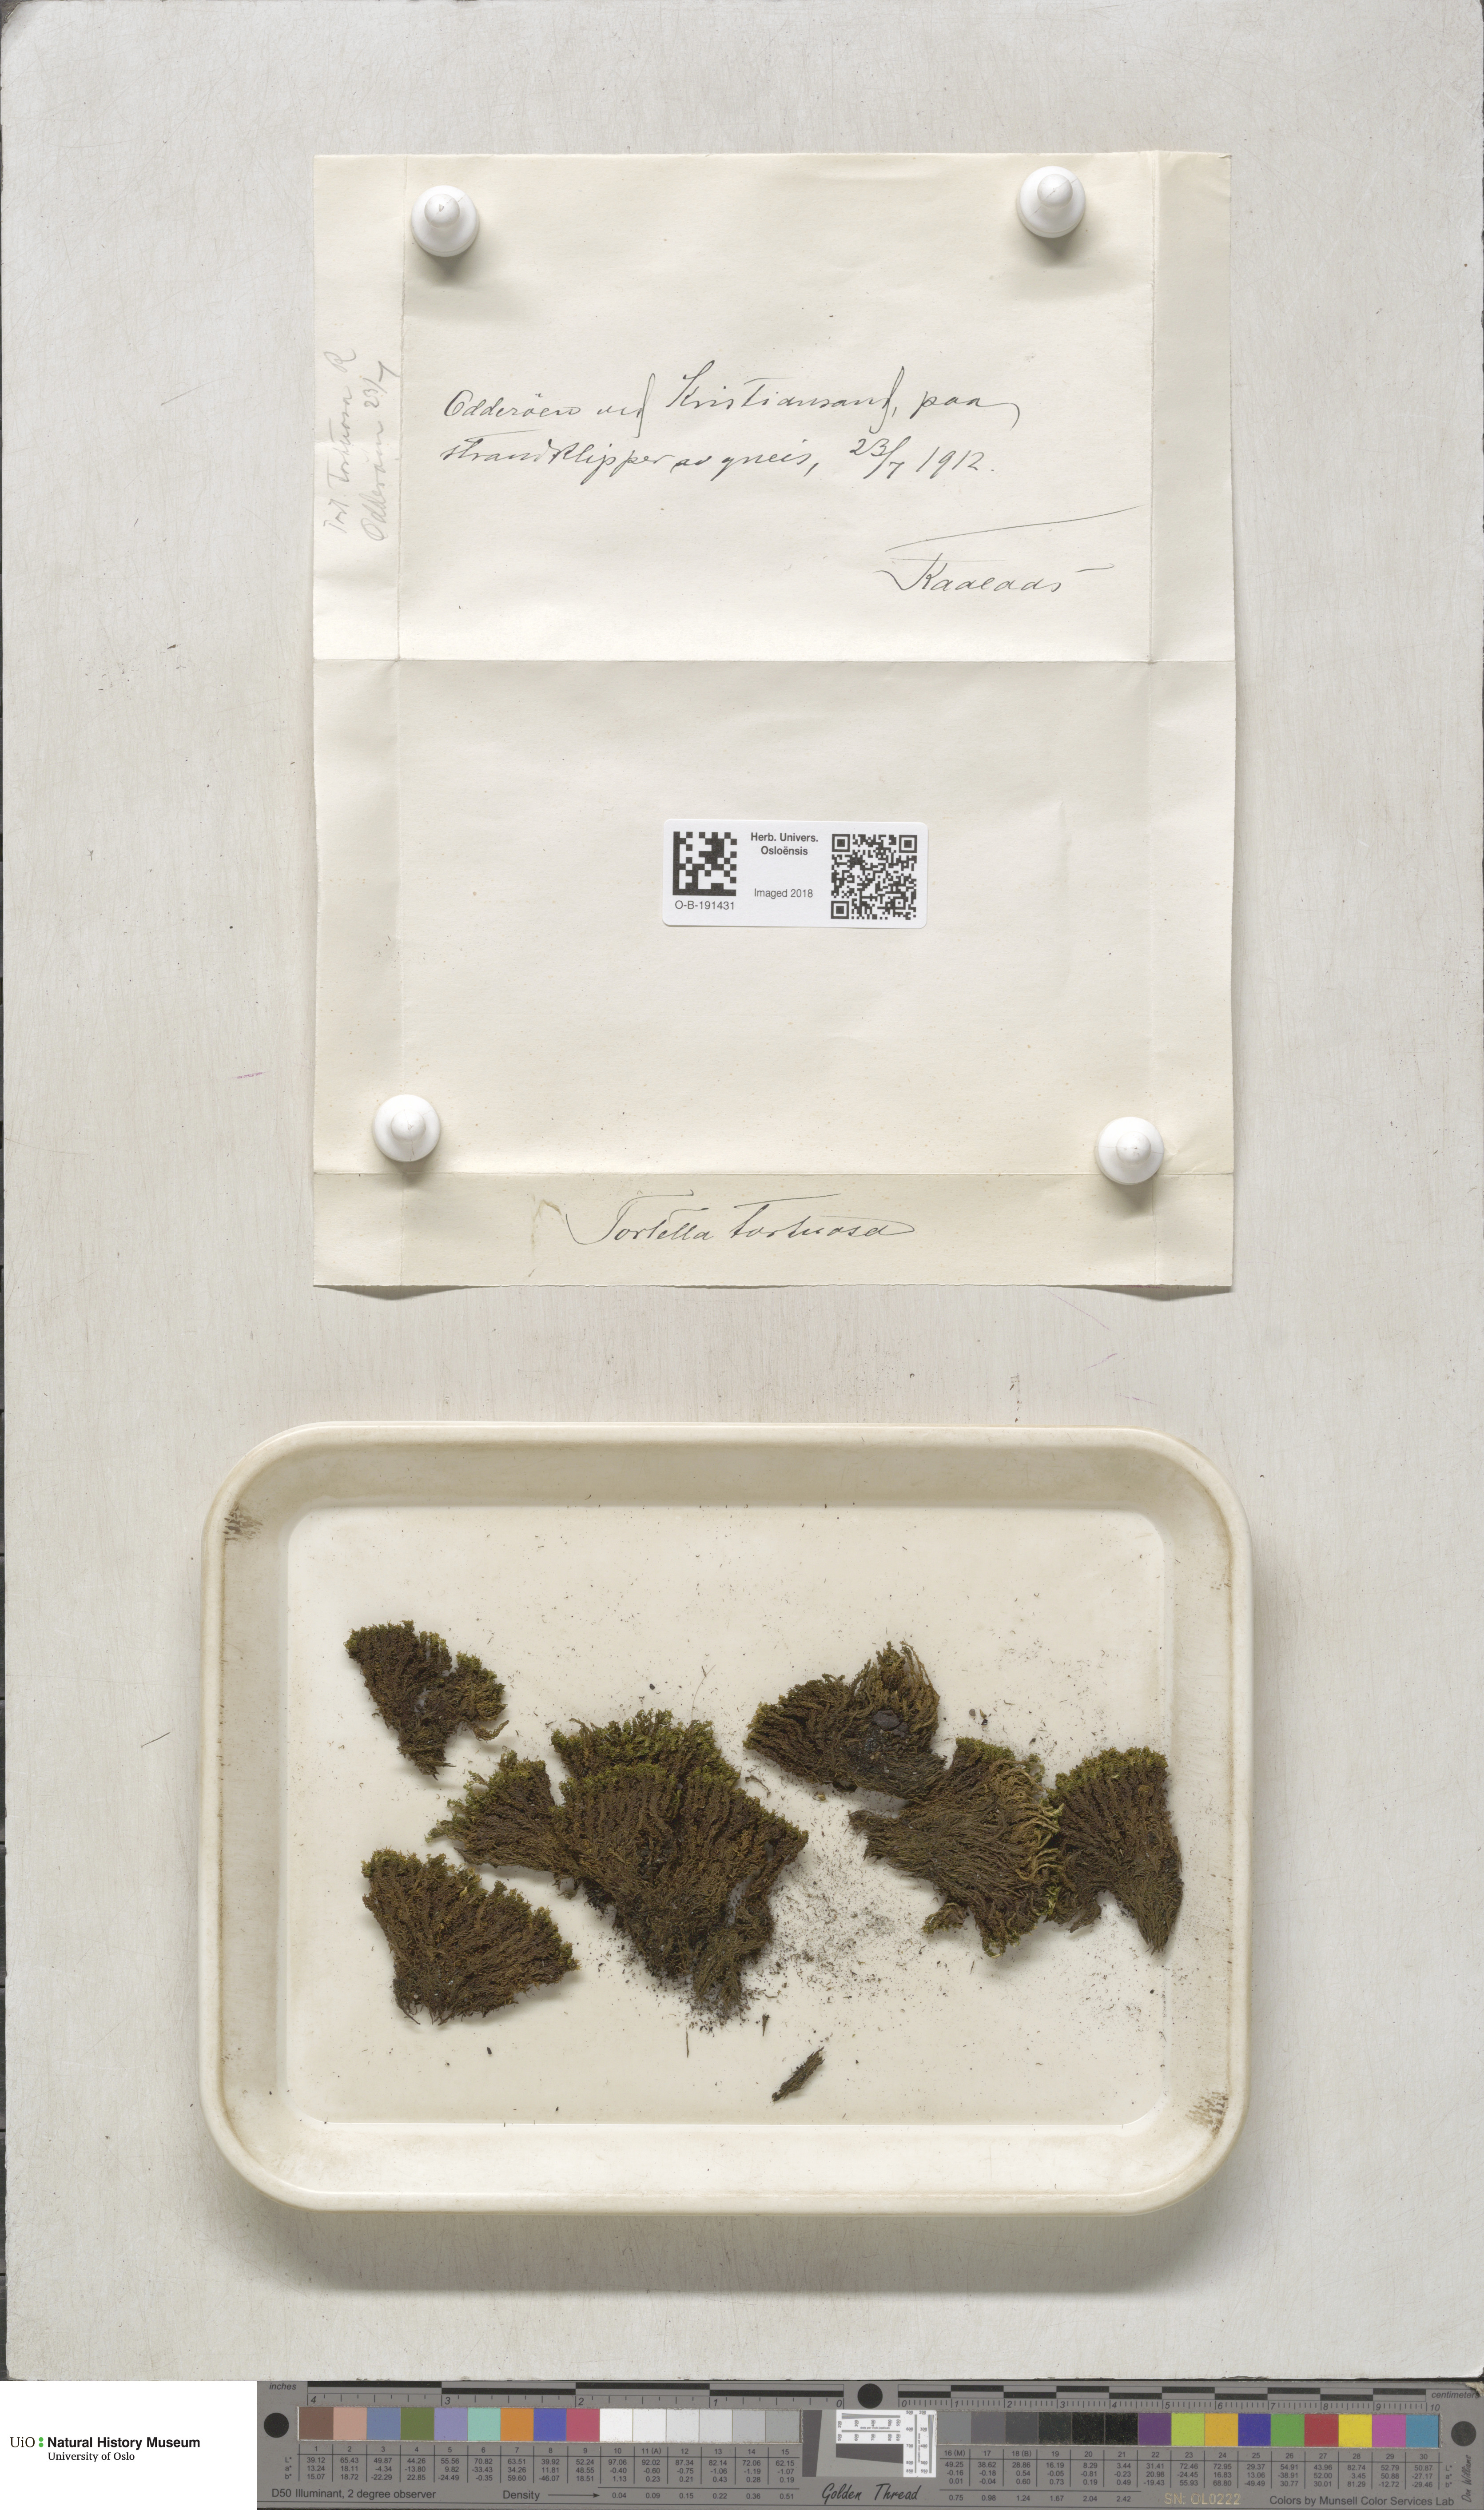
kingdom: Plantae
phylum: Bryophyta
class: Bryopsida
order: Pottiales
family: Pottiaceae
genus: Tortella
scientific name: Tortella tortuosa
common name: Frizzled crisp moss
